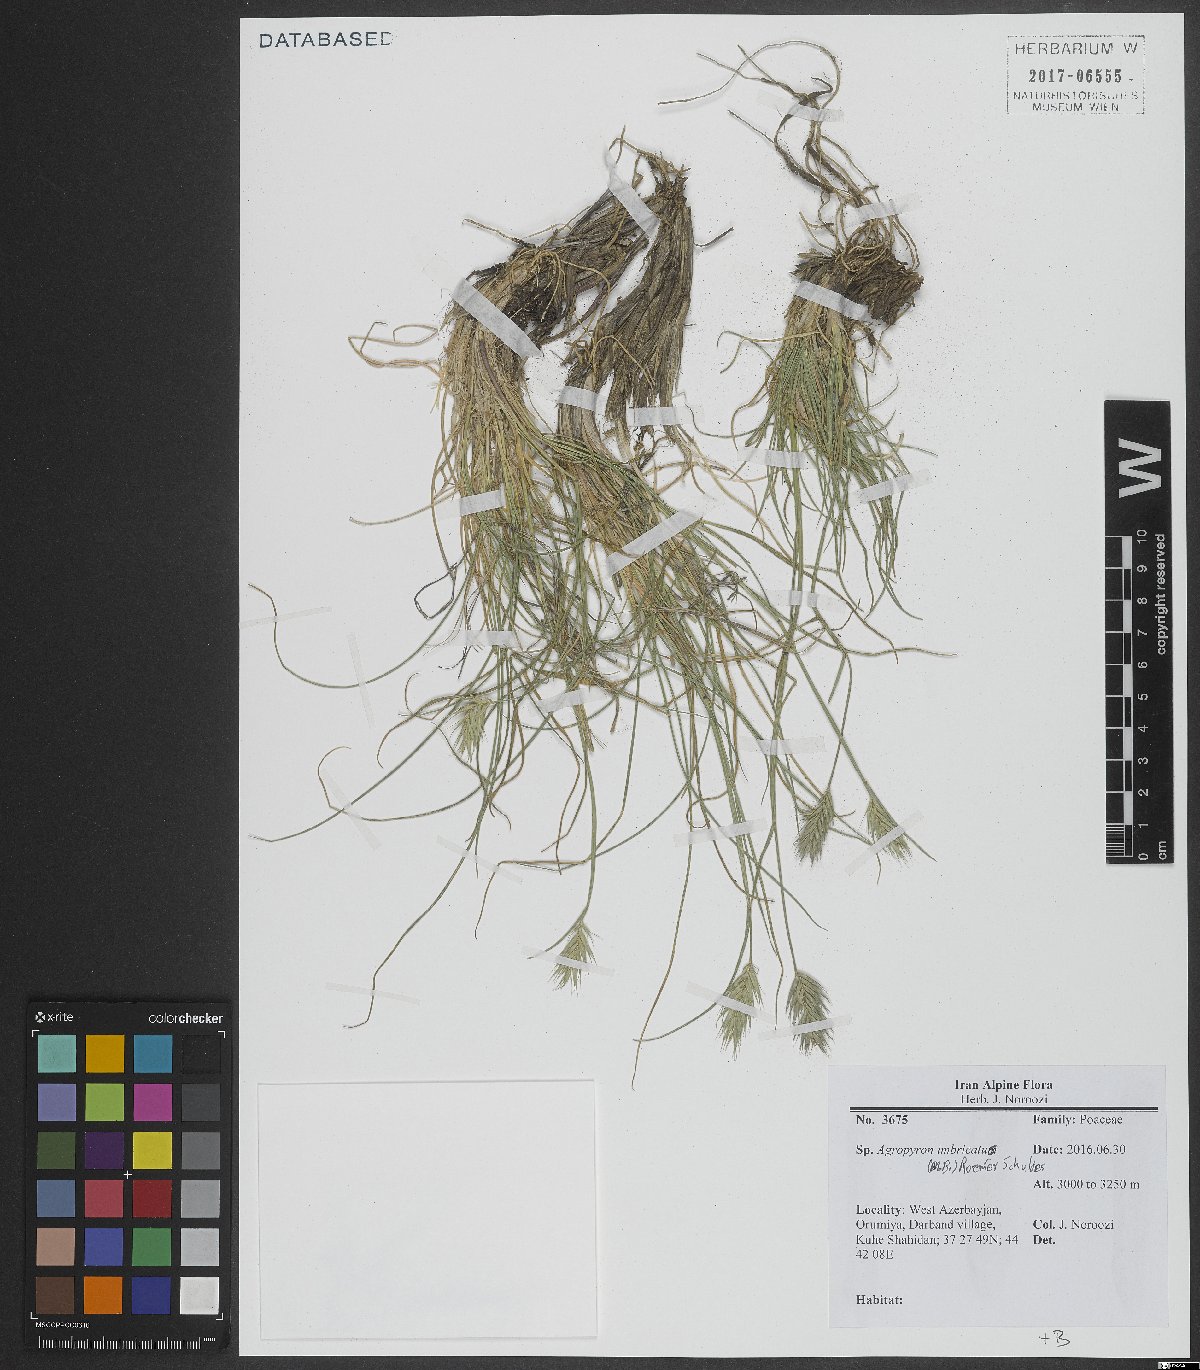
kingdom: Plantae
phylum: Tracheophyta
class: Liliopsida
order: Poales
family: Poaceae
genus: Agropyron
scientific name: Agropyron cristatum
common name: Crested wheatgrass
